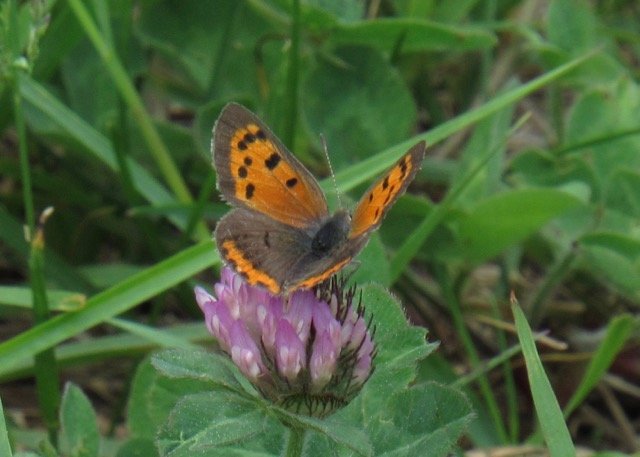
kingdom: Animalia
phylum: Arthropoda
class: Insecta
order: Lepidoptera
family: Lycaenidae
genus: Lycaena
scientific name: Lycaena phlaeas
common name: American Copper
